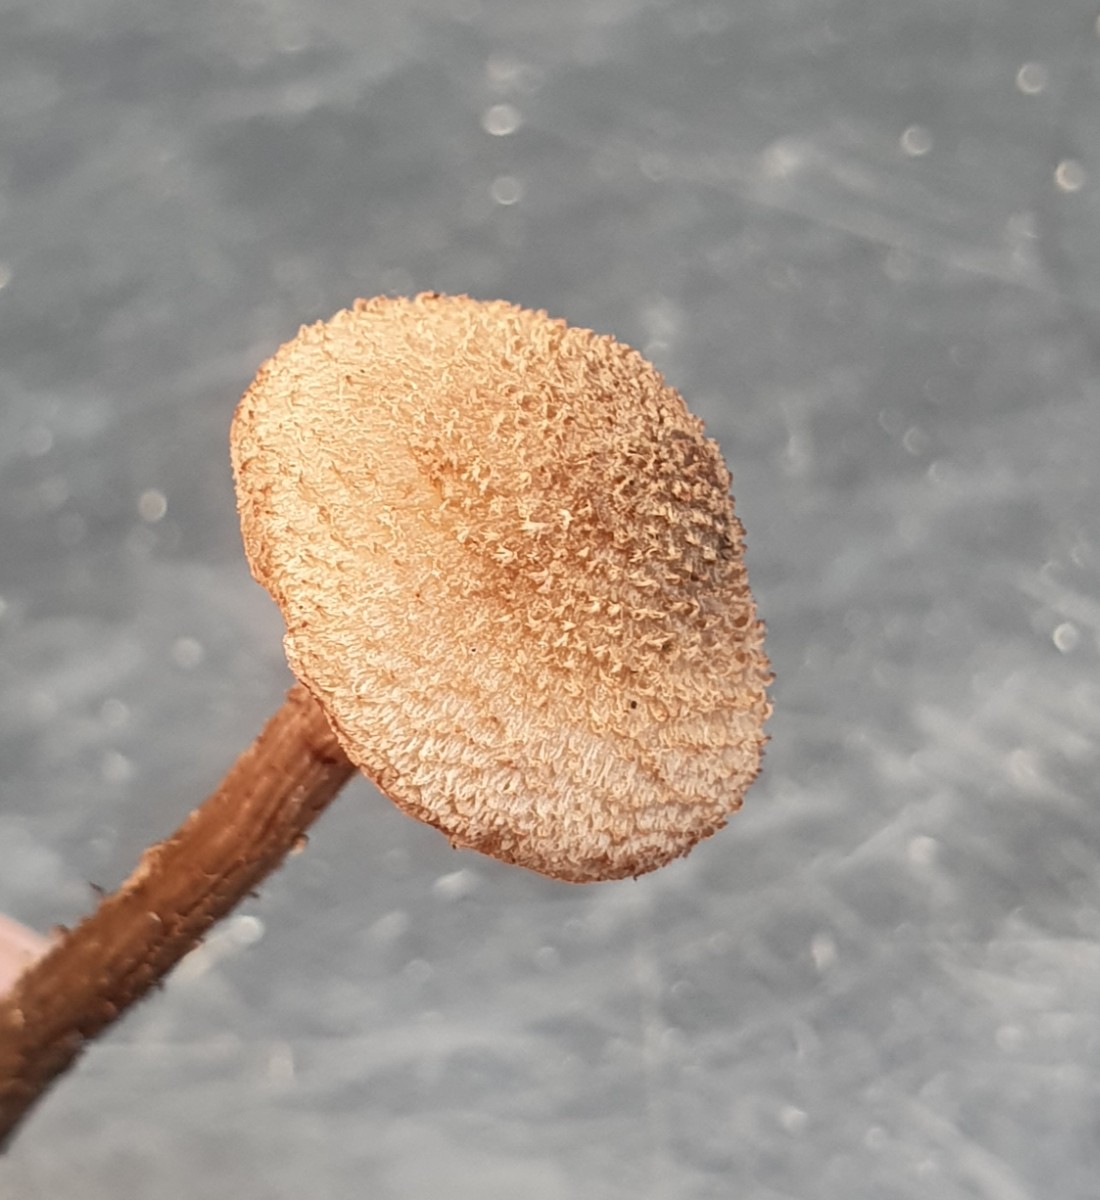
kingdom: Fungi
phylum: Basidiomycota
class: Agaricomycetes
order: Agaricales
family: Inocybaceae
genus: Inosperma
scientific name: Inosperma calamistratum
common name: grønfodet trævlhat
